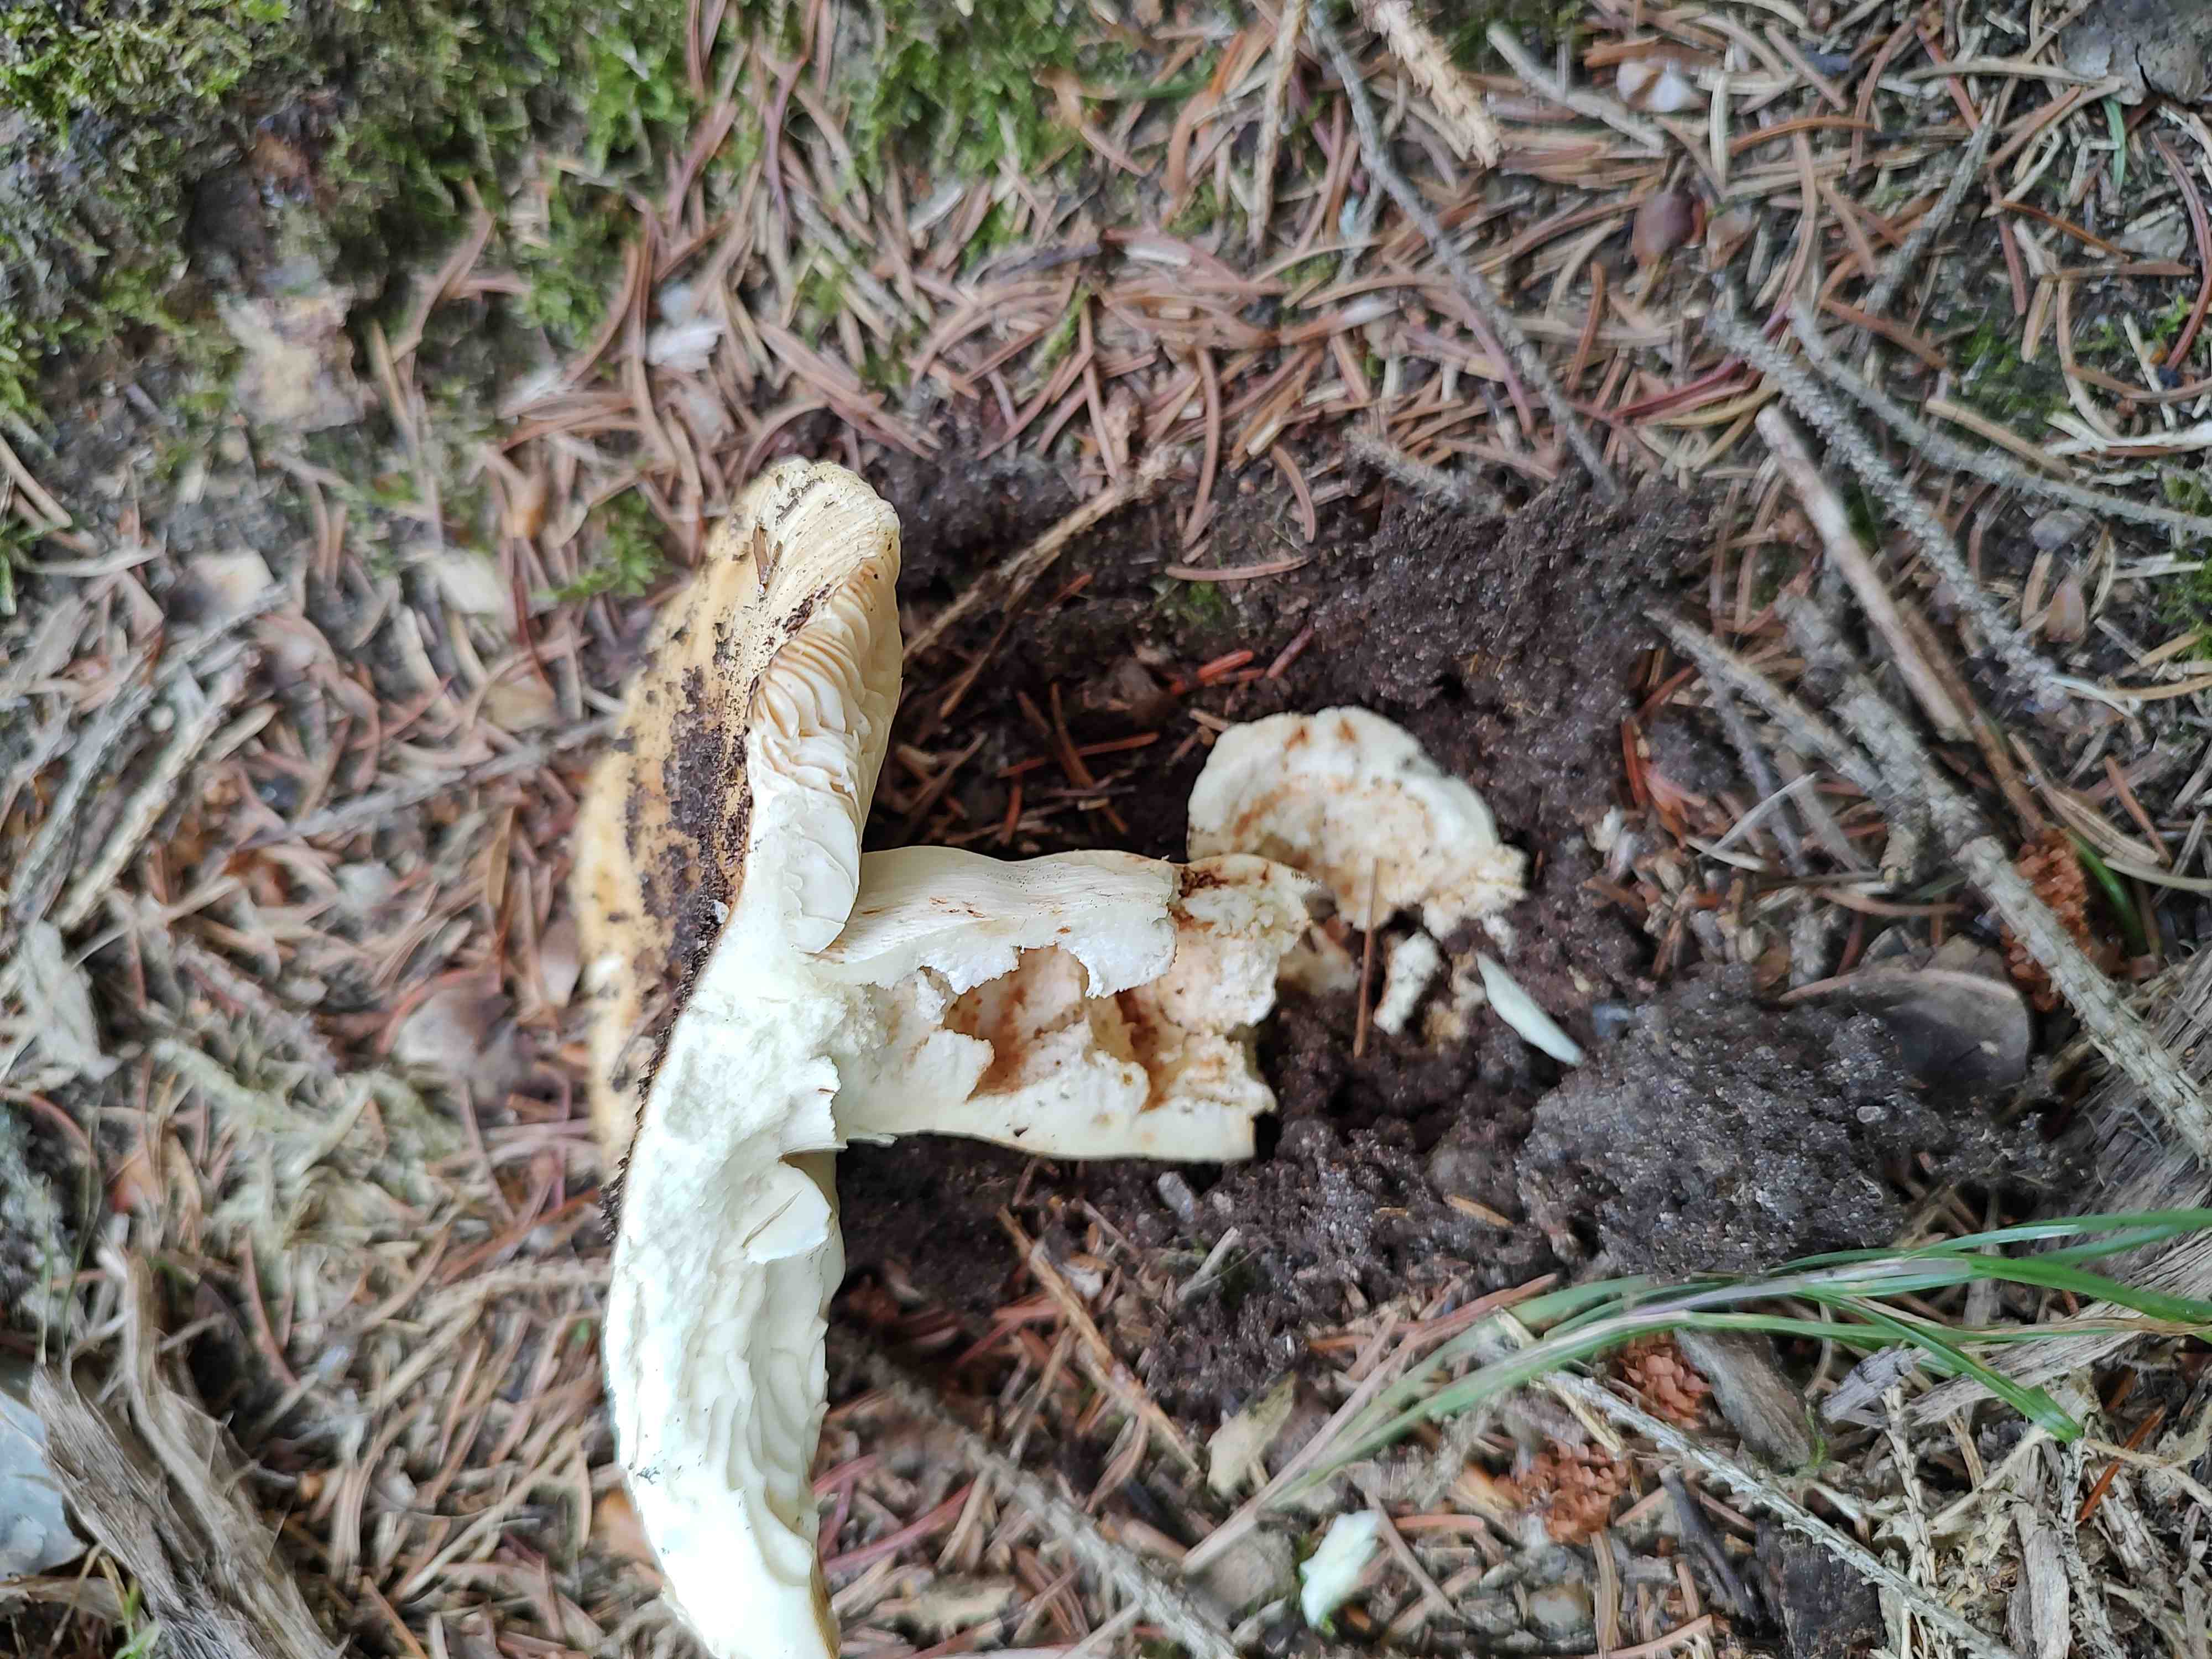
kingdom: Fungi
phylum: Basidiomycota
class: Agaricomycetes
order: Russulales
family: Russulaceae
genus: Russula
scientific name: Russula foetens
